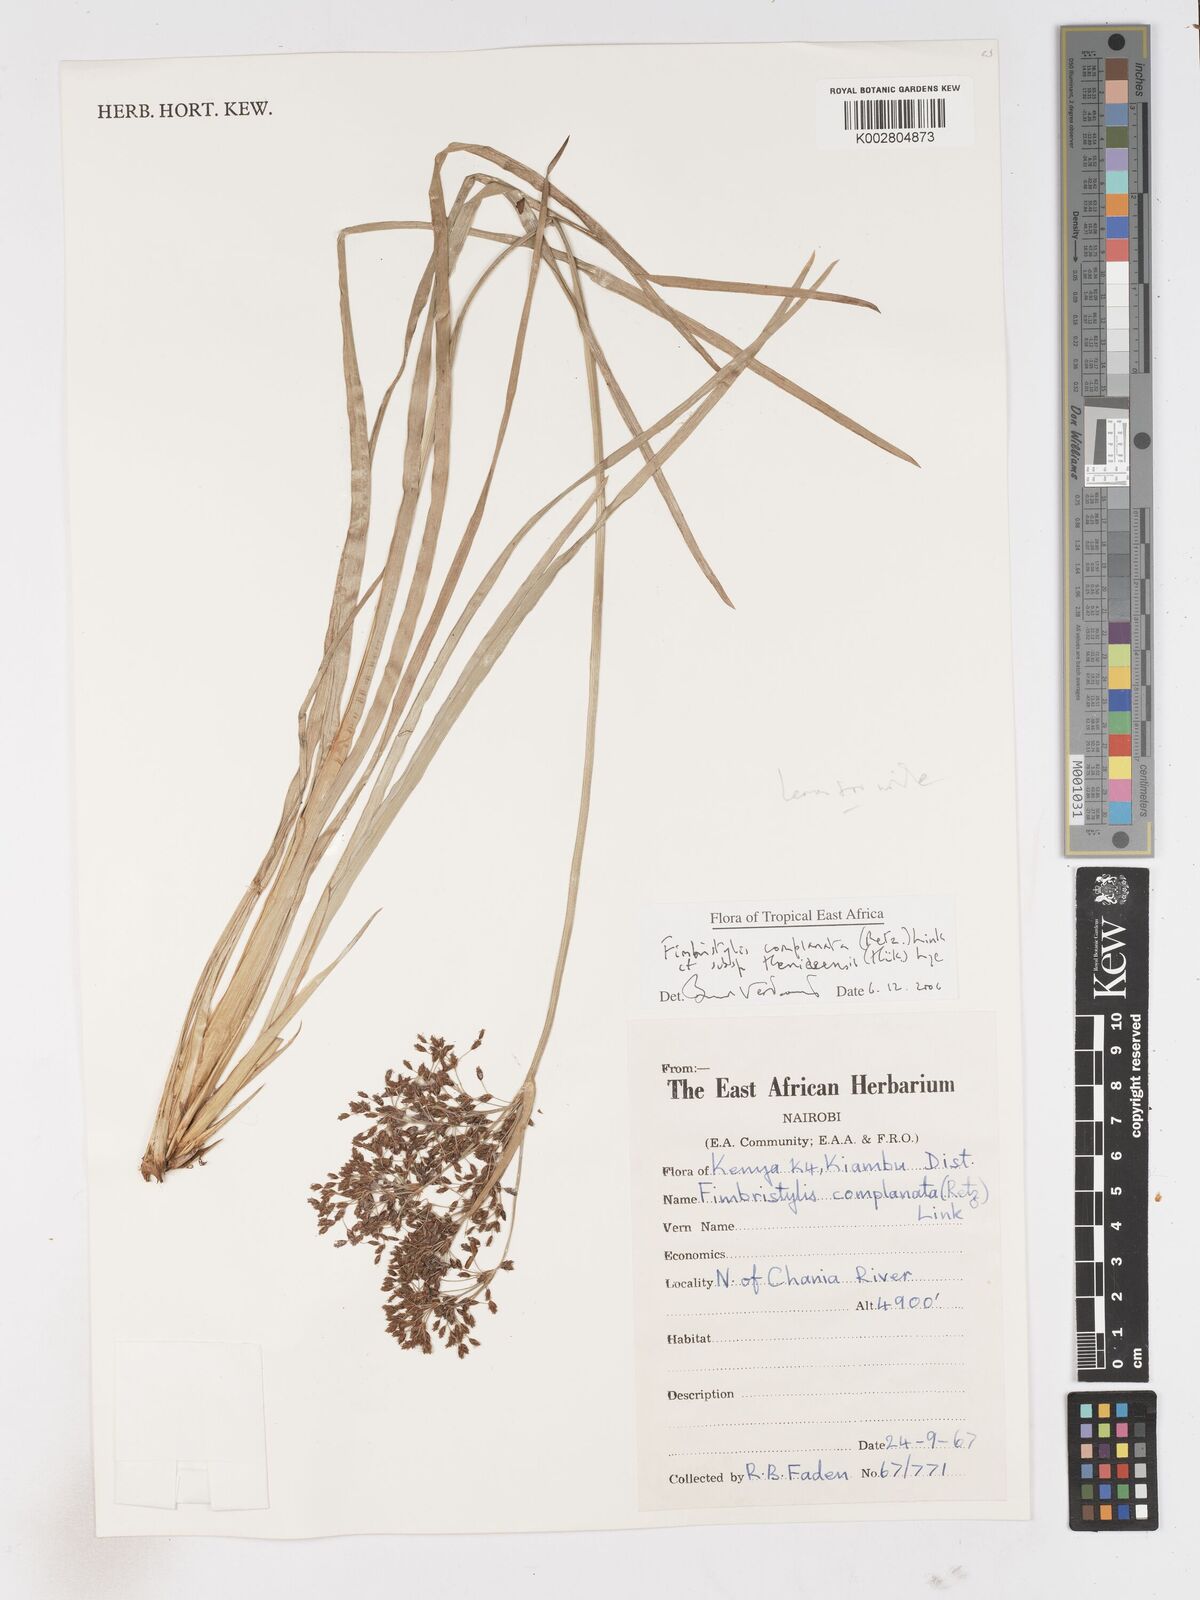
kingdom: Plantae
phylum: Tracheophyta
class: Liliopsida
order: Poales
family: Cyperaceae
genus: Fimbristylis
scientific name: Fimbristylis complanata
